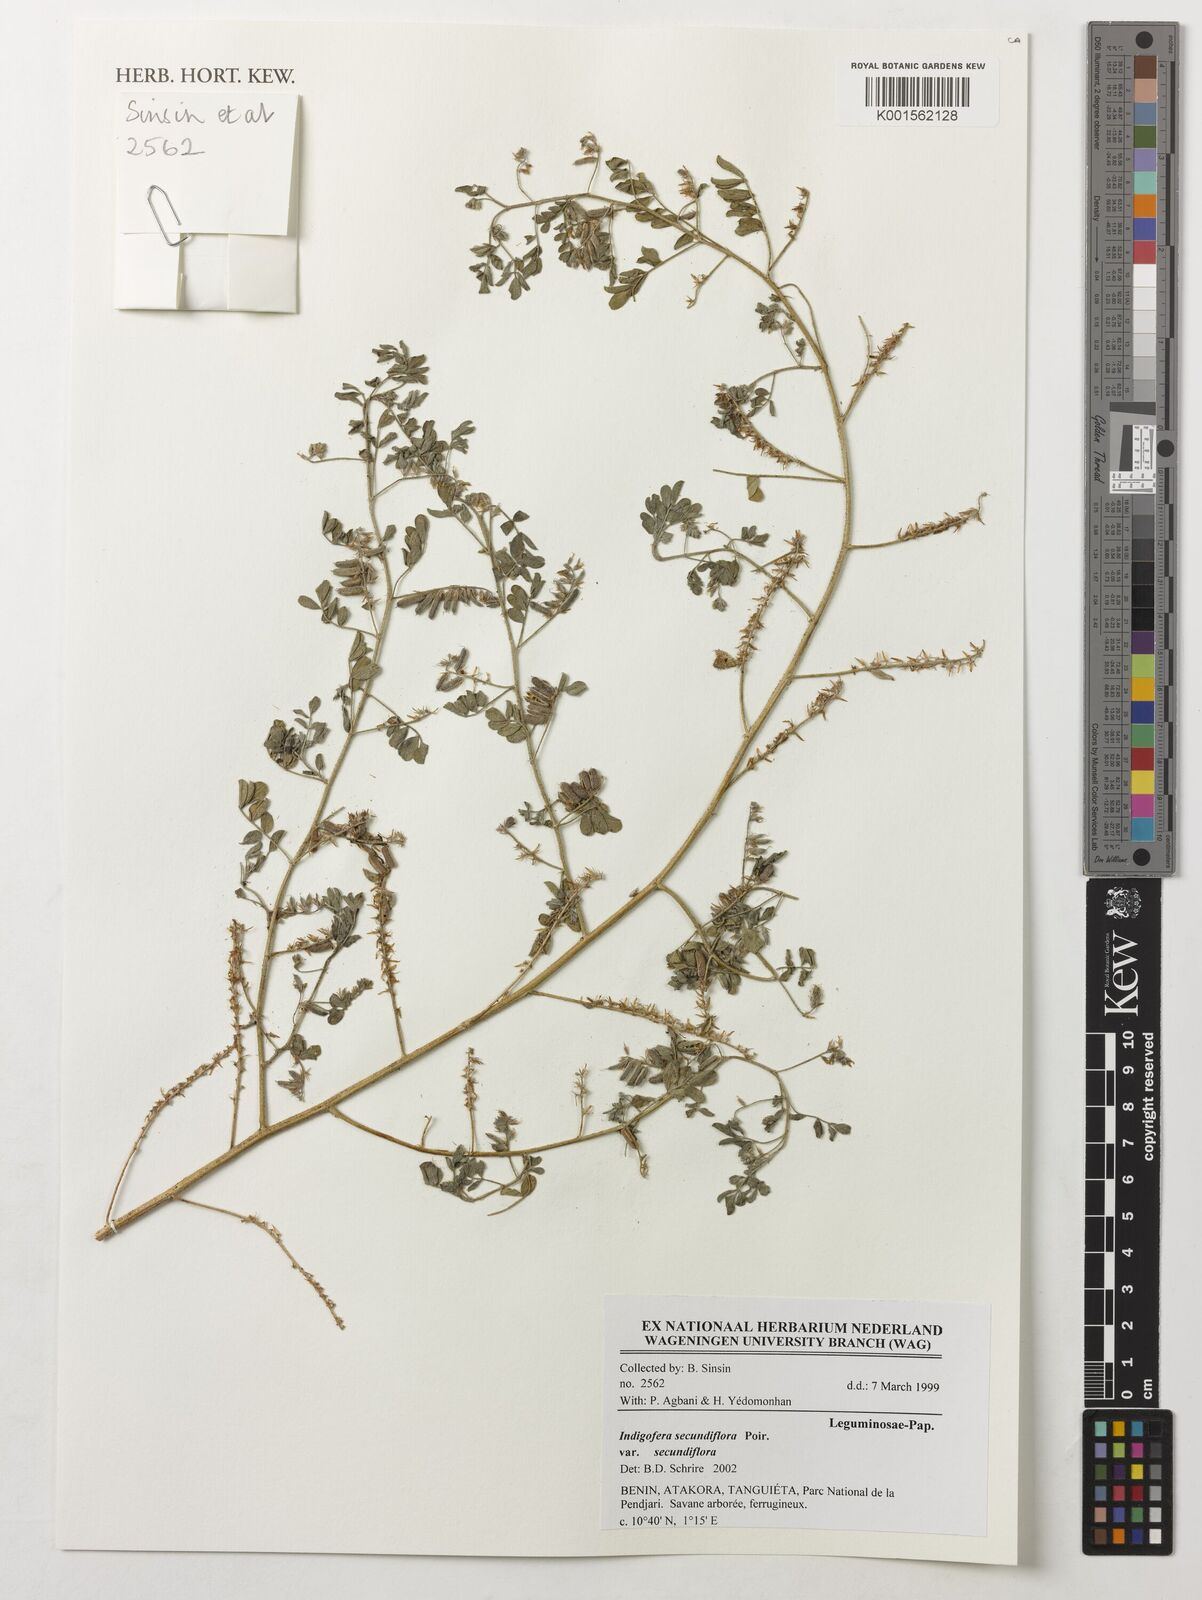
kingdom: Plantae
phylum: Tracheophyta
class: Magnoliopsida
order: Fabales
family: Fabaceae
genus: Indigofera
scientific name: Indigofera secundiflora
